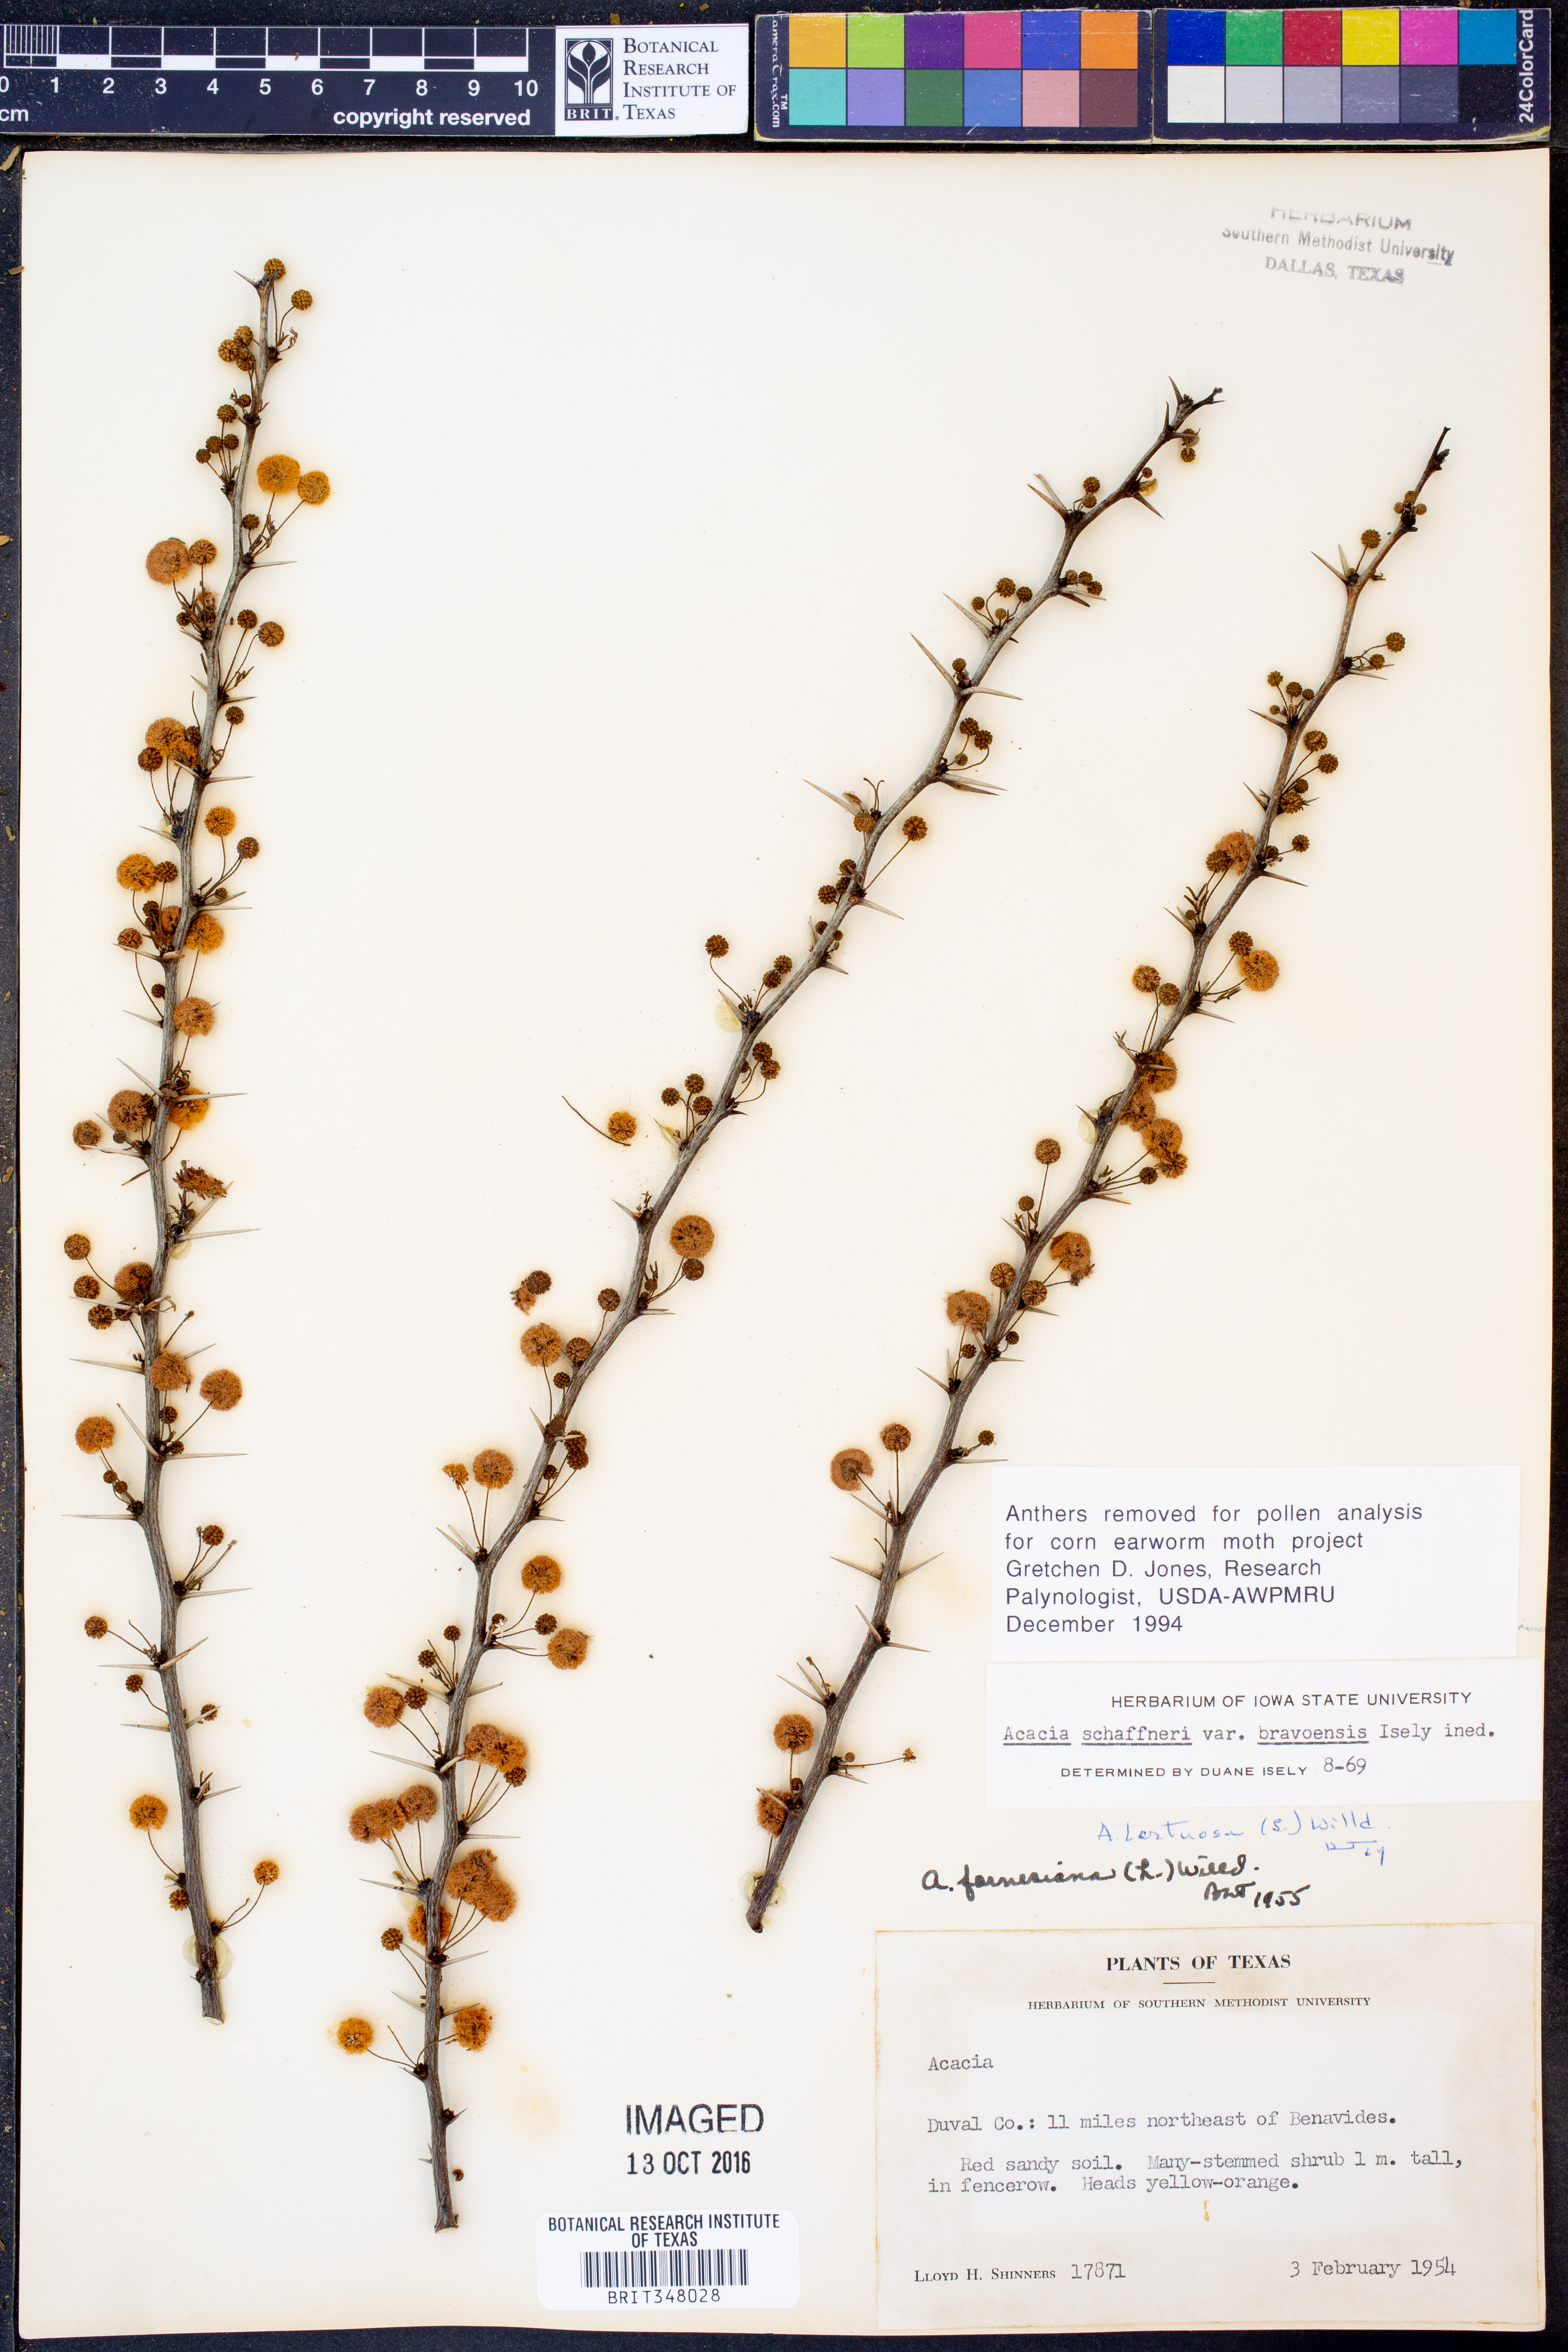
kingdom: Plantae
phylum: Tracheophyta
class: Magnoliopsida
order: Fabales
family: Fabaceae
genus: Vachellia
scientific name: Vachellia bravoensis
